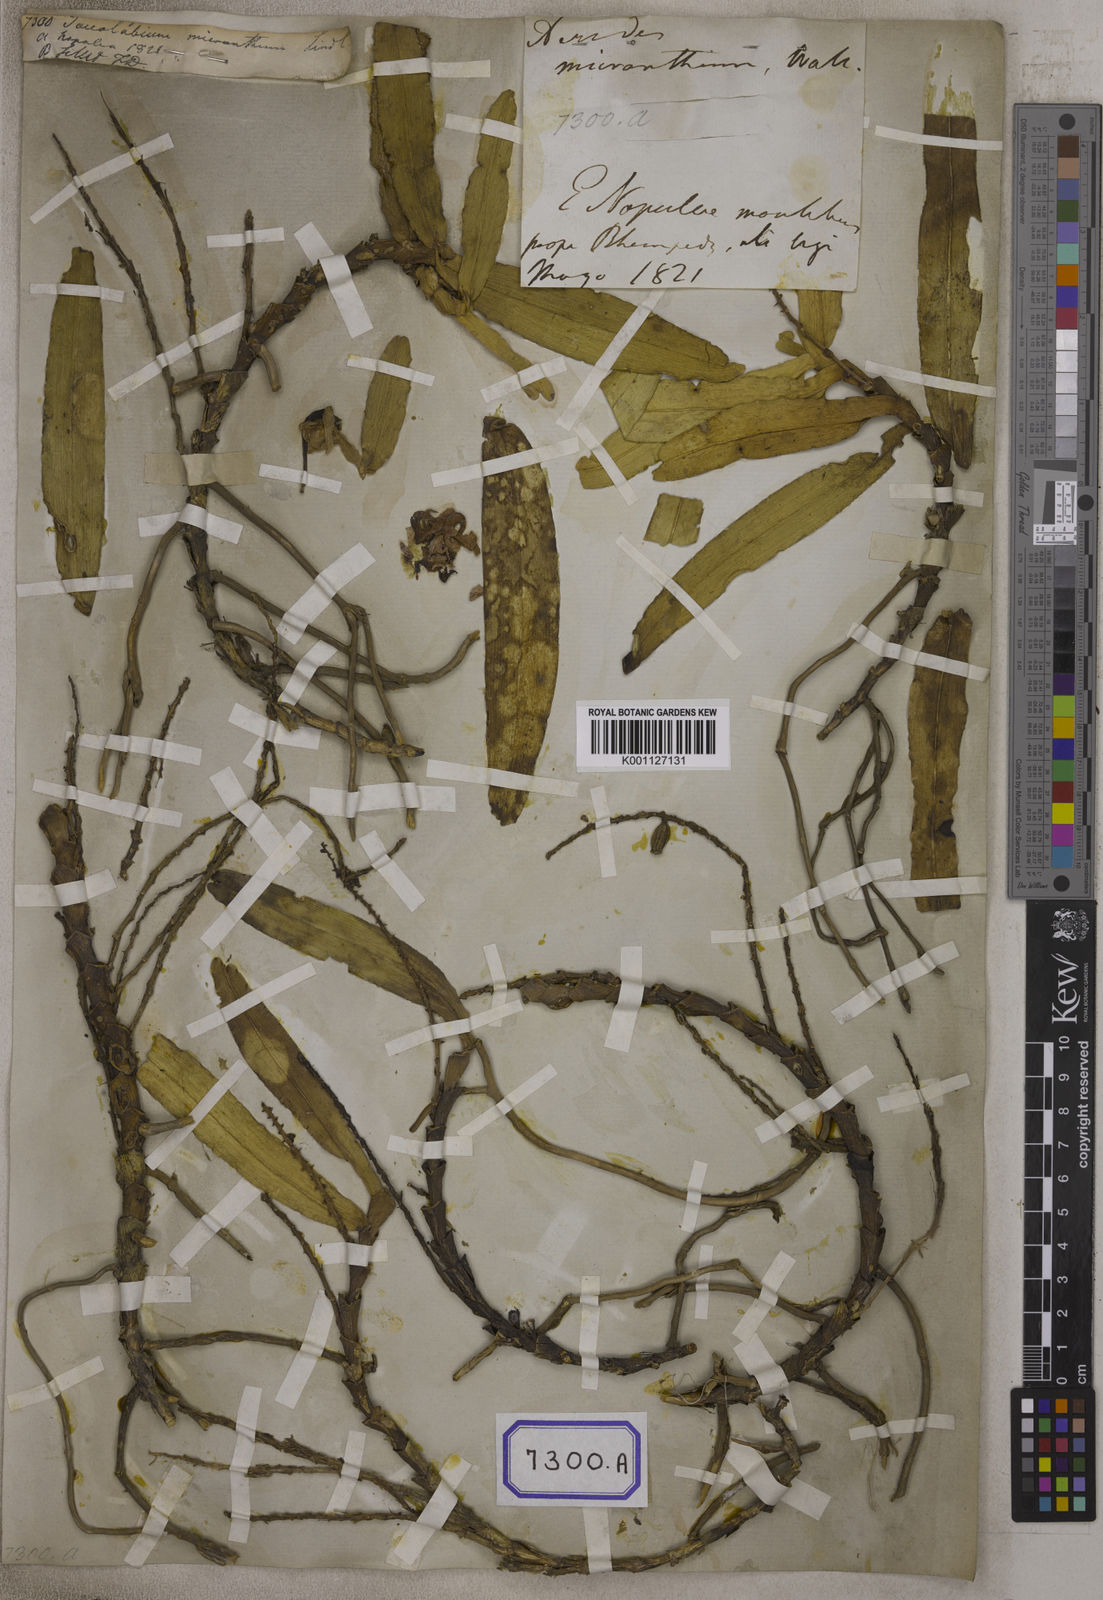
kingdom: Plantae
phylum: Tracheophyta
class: Liliopsida
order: Asparagales
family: Orchidaceae
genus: Smitinandia
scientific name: Smitinandia micrantha
